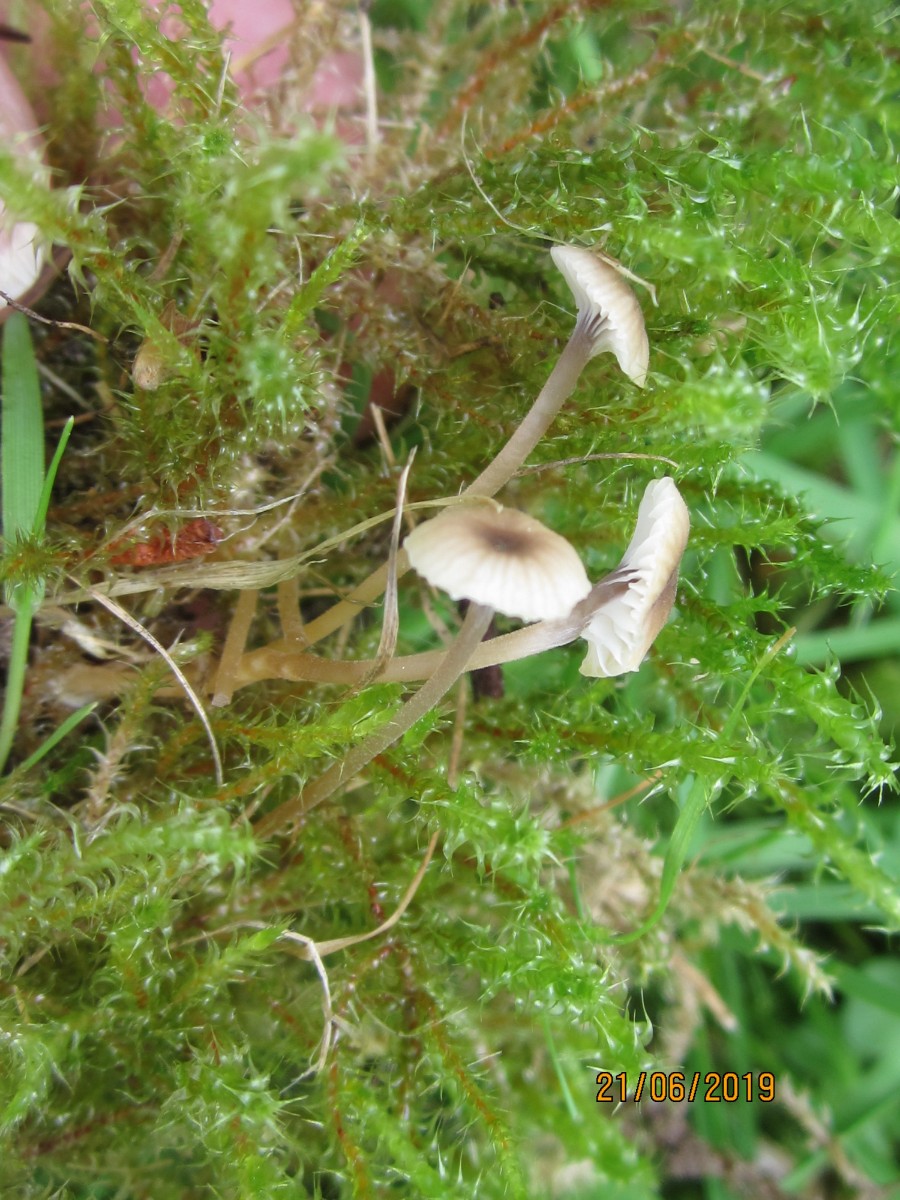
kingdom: Fungi
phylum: Basidiomycota
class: Agaricomycetes
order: Hymenochaetales
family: Rickenellaceae
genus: Rickenella
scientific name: Rickenella swartzii
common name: finstokket mosnavlehat
